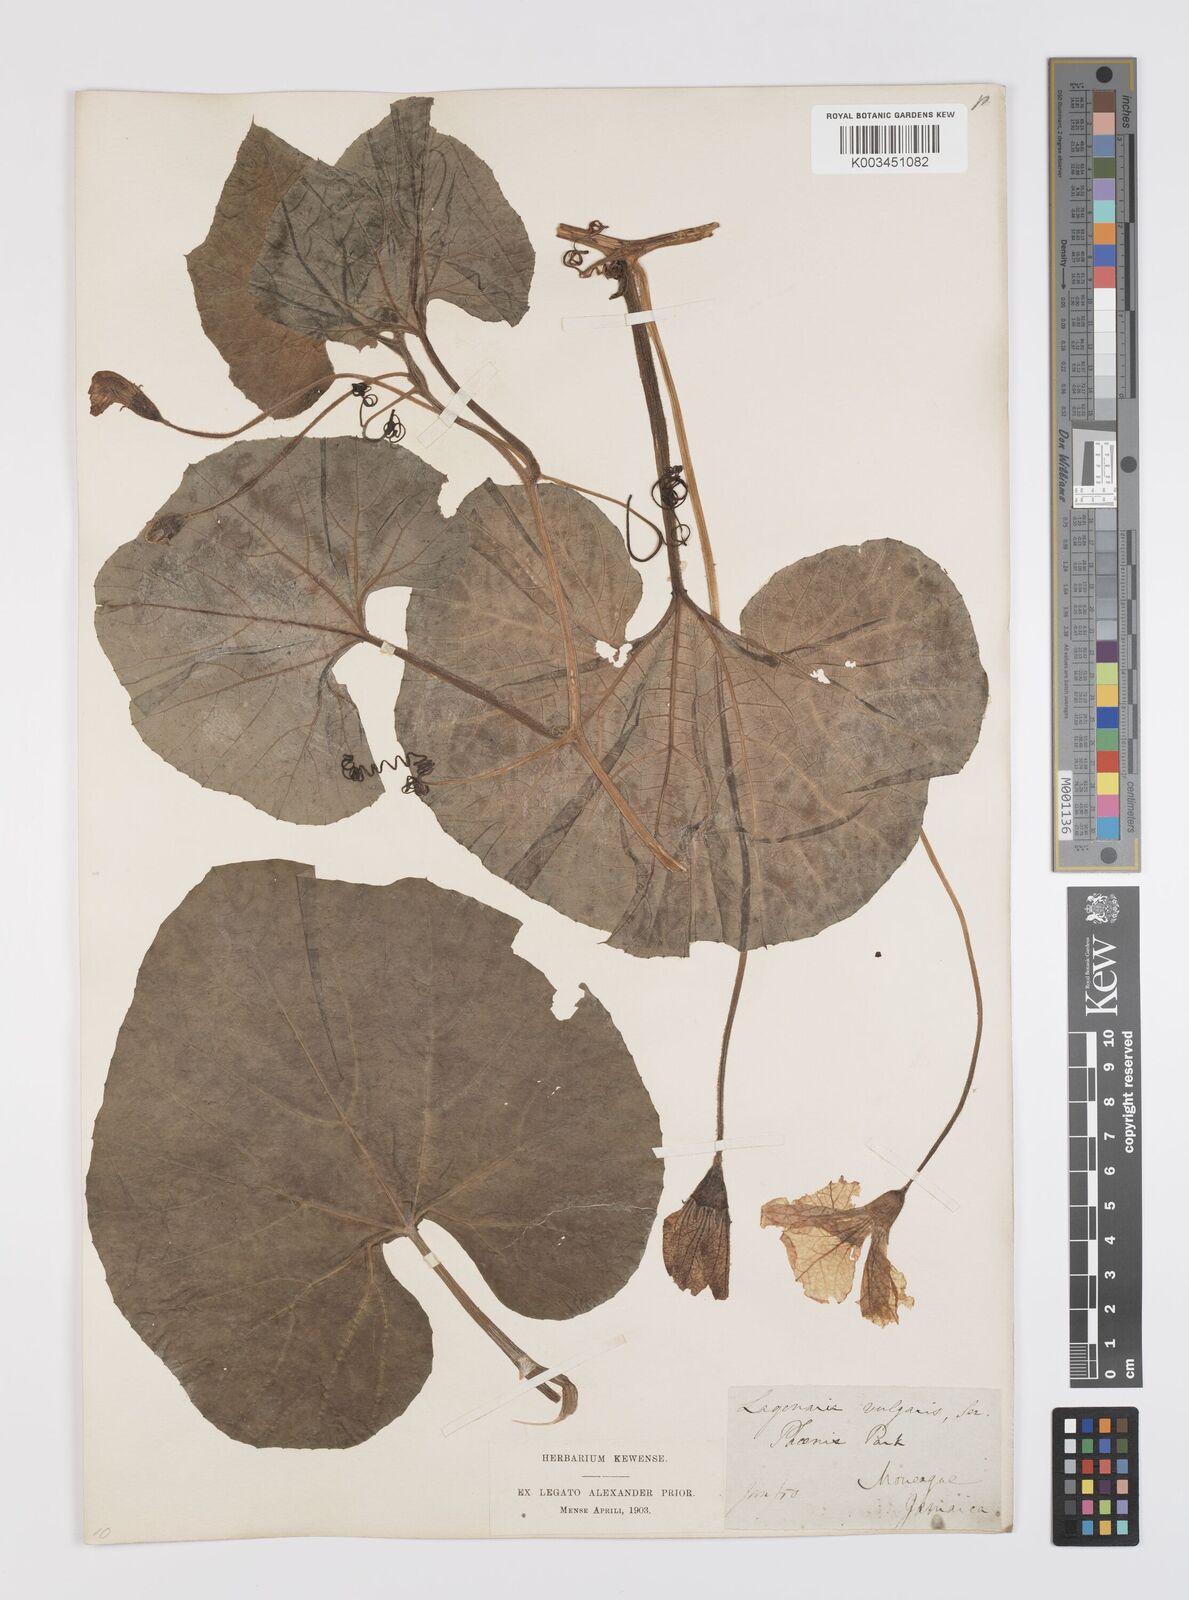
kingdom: Plantae
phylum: Tracheophyta
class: Magnoliopsida
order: Cucurbitales
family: Cucurbitaceae
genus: Lagenaria
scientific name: Lagenaria siceraria
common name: Bottle gourd
